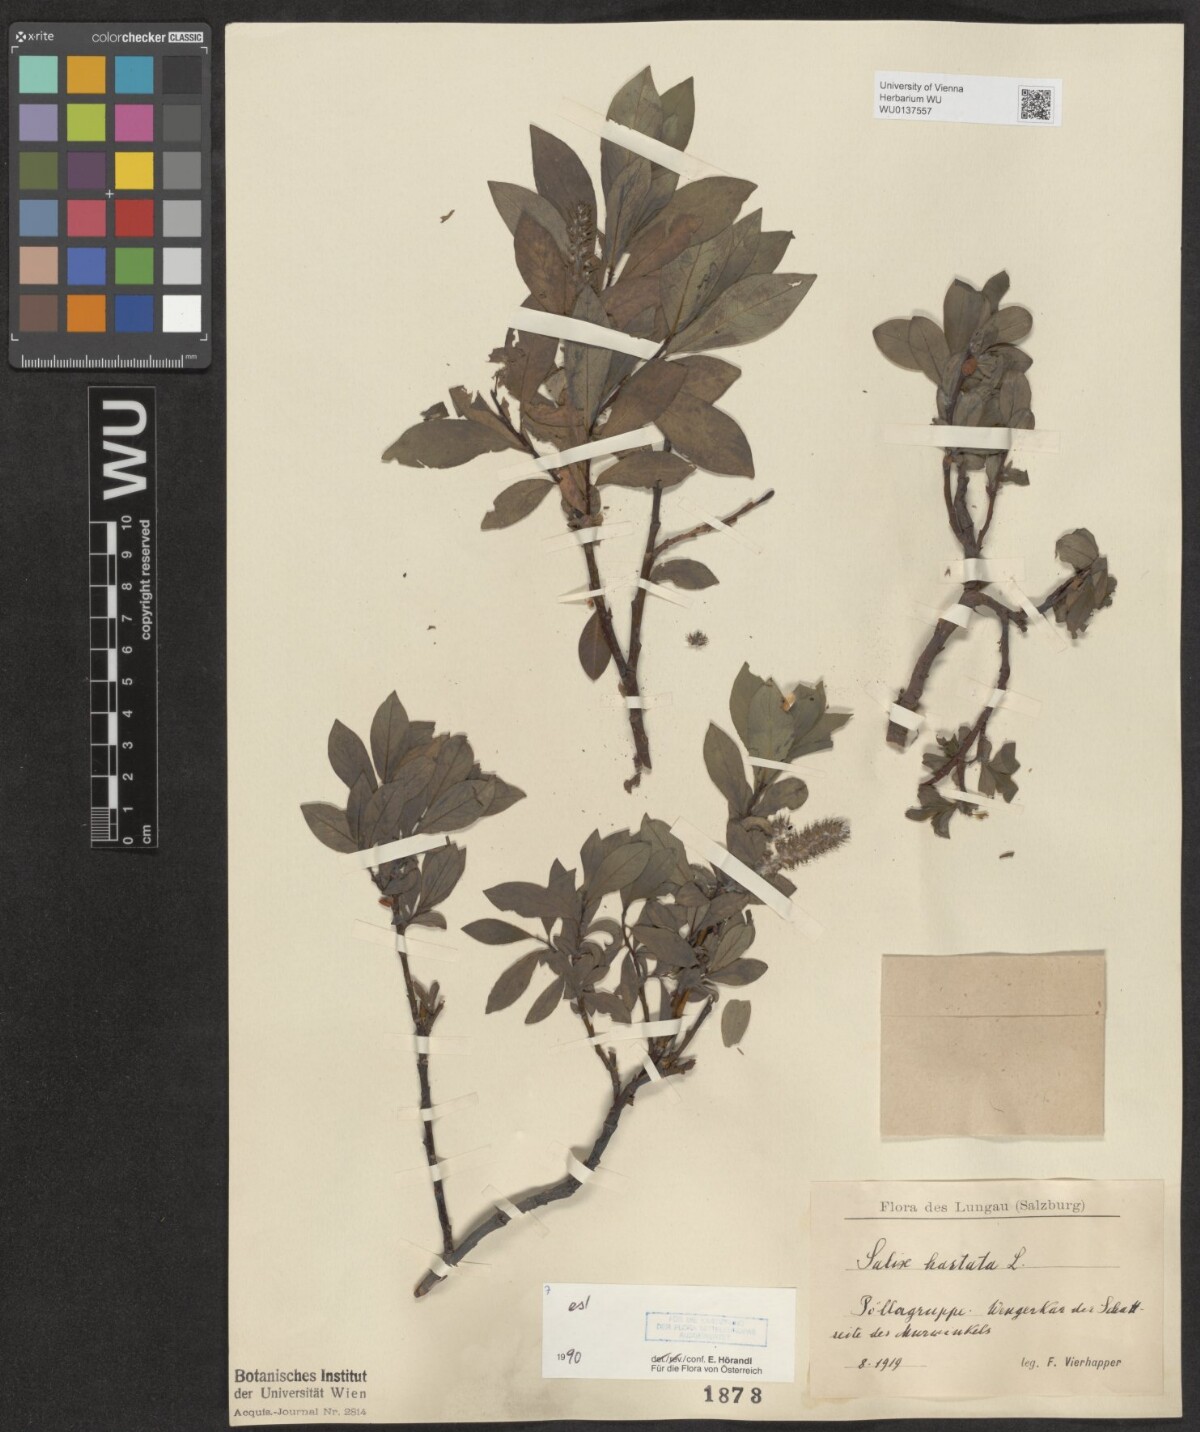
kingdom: Plantae
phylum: Tracheophyta
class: Magnoliopsida
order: Malpighiales
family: Salicaceae
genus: Salix
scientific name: Salix hastata
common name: Halberd willow
